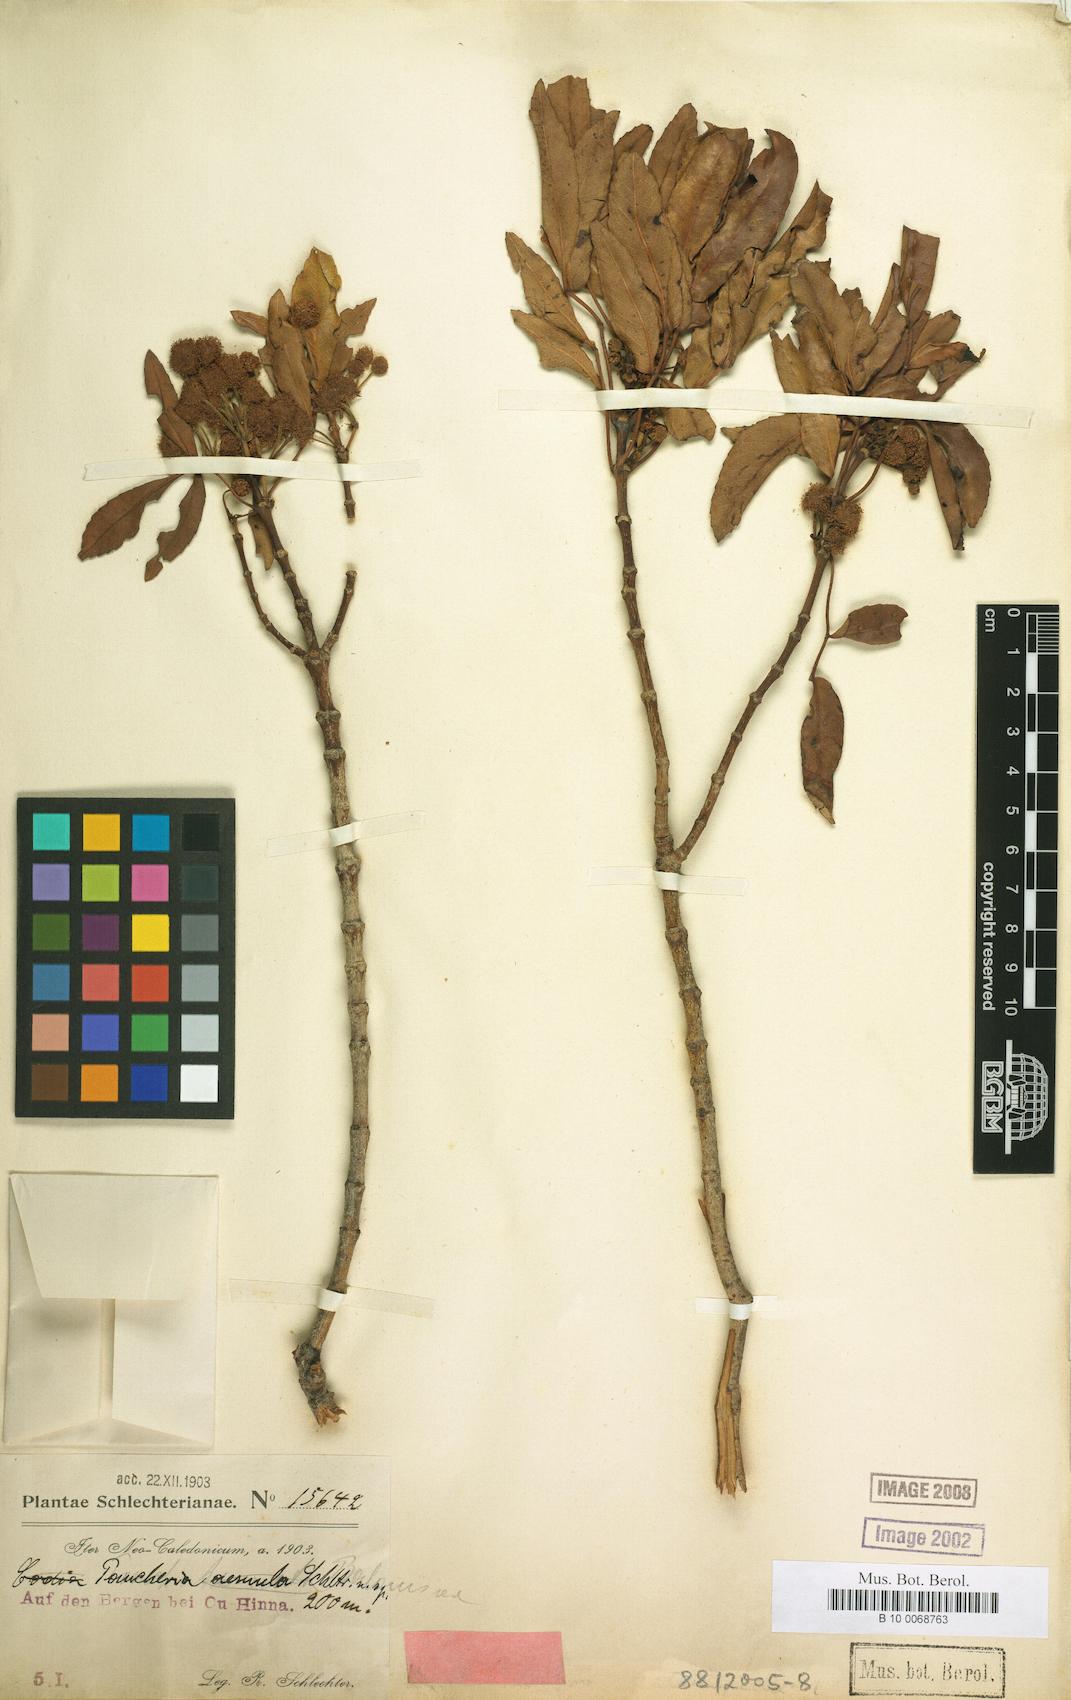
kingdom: Plantae
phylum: Tracheophyta
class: Magnoliopsida
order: Oxalidales
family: Cunoniaceae
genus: Pancheria
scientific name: Pancheria beauverdiana
